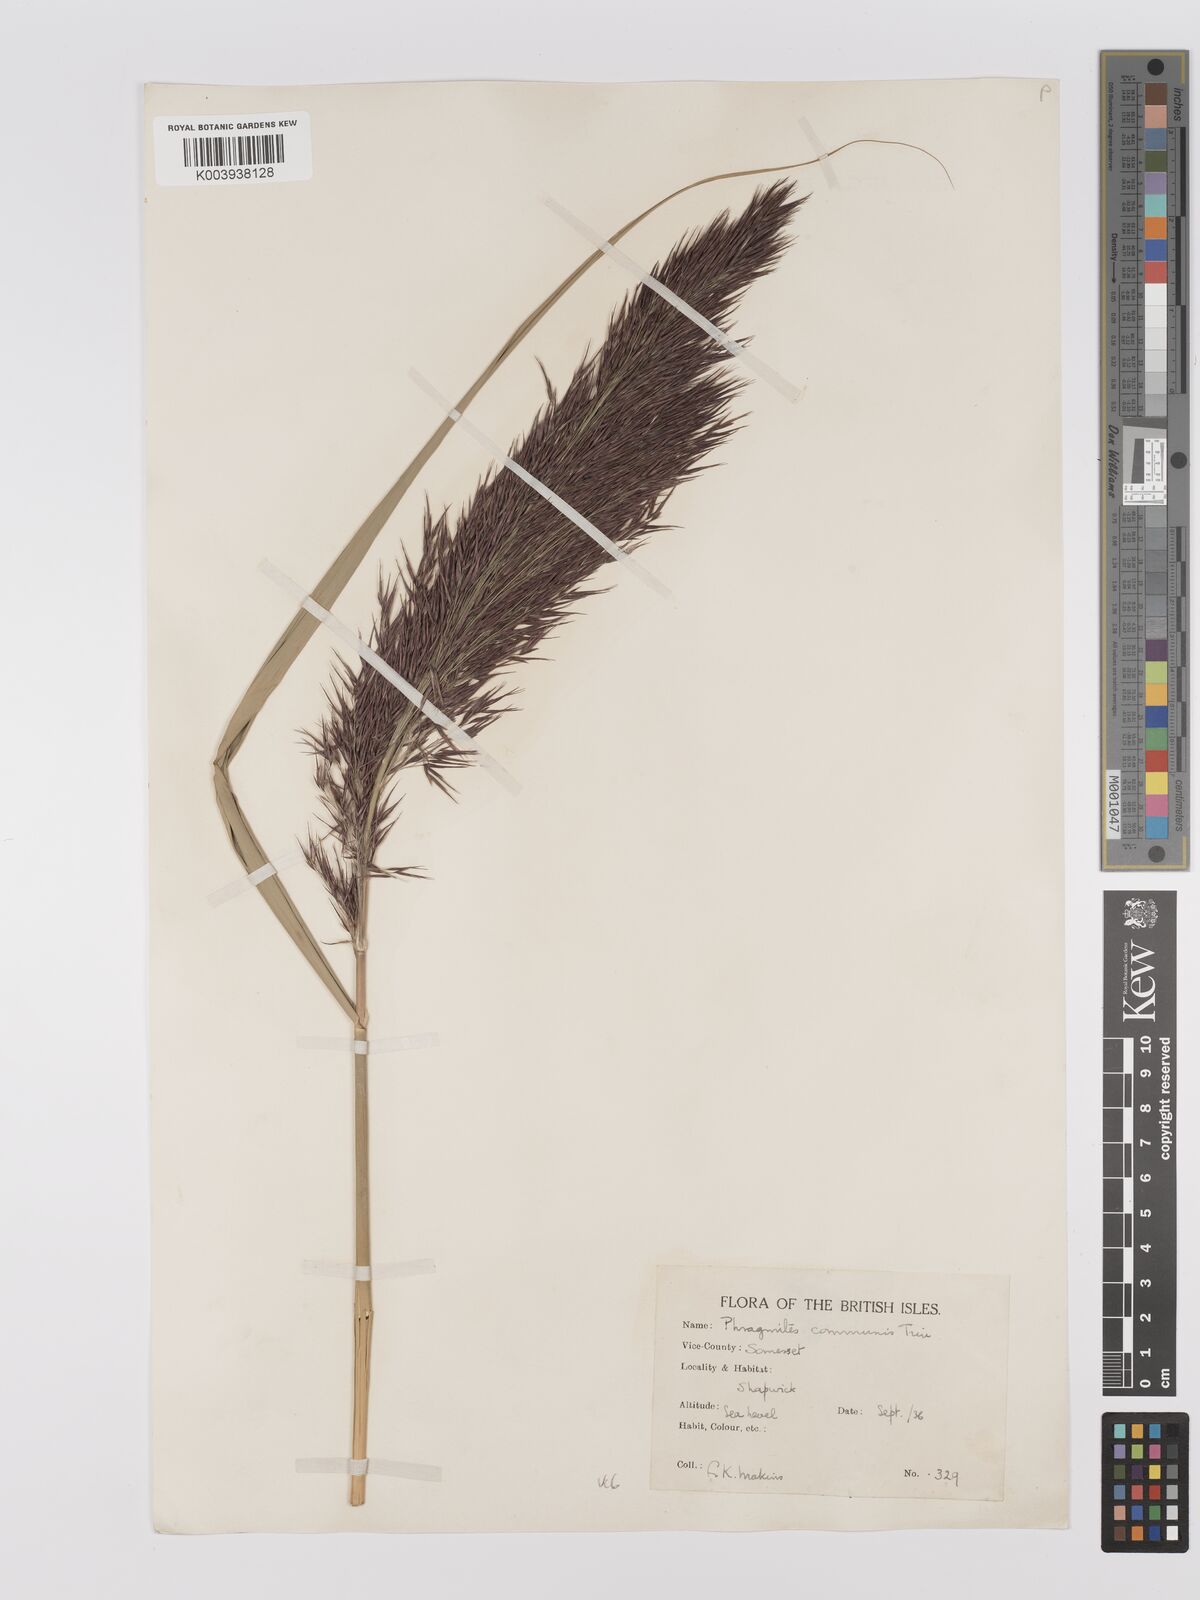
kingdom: Plantae
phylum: Tracheophyta
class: Liliopsida
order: Poales
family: Poaceae
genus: Phragmites
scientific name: Phragmites australis
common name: Common reed
